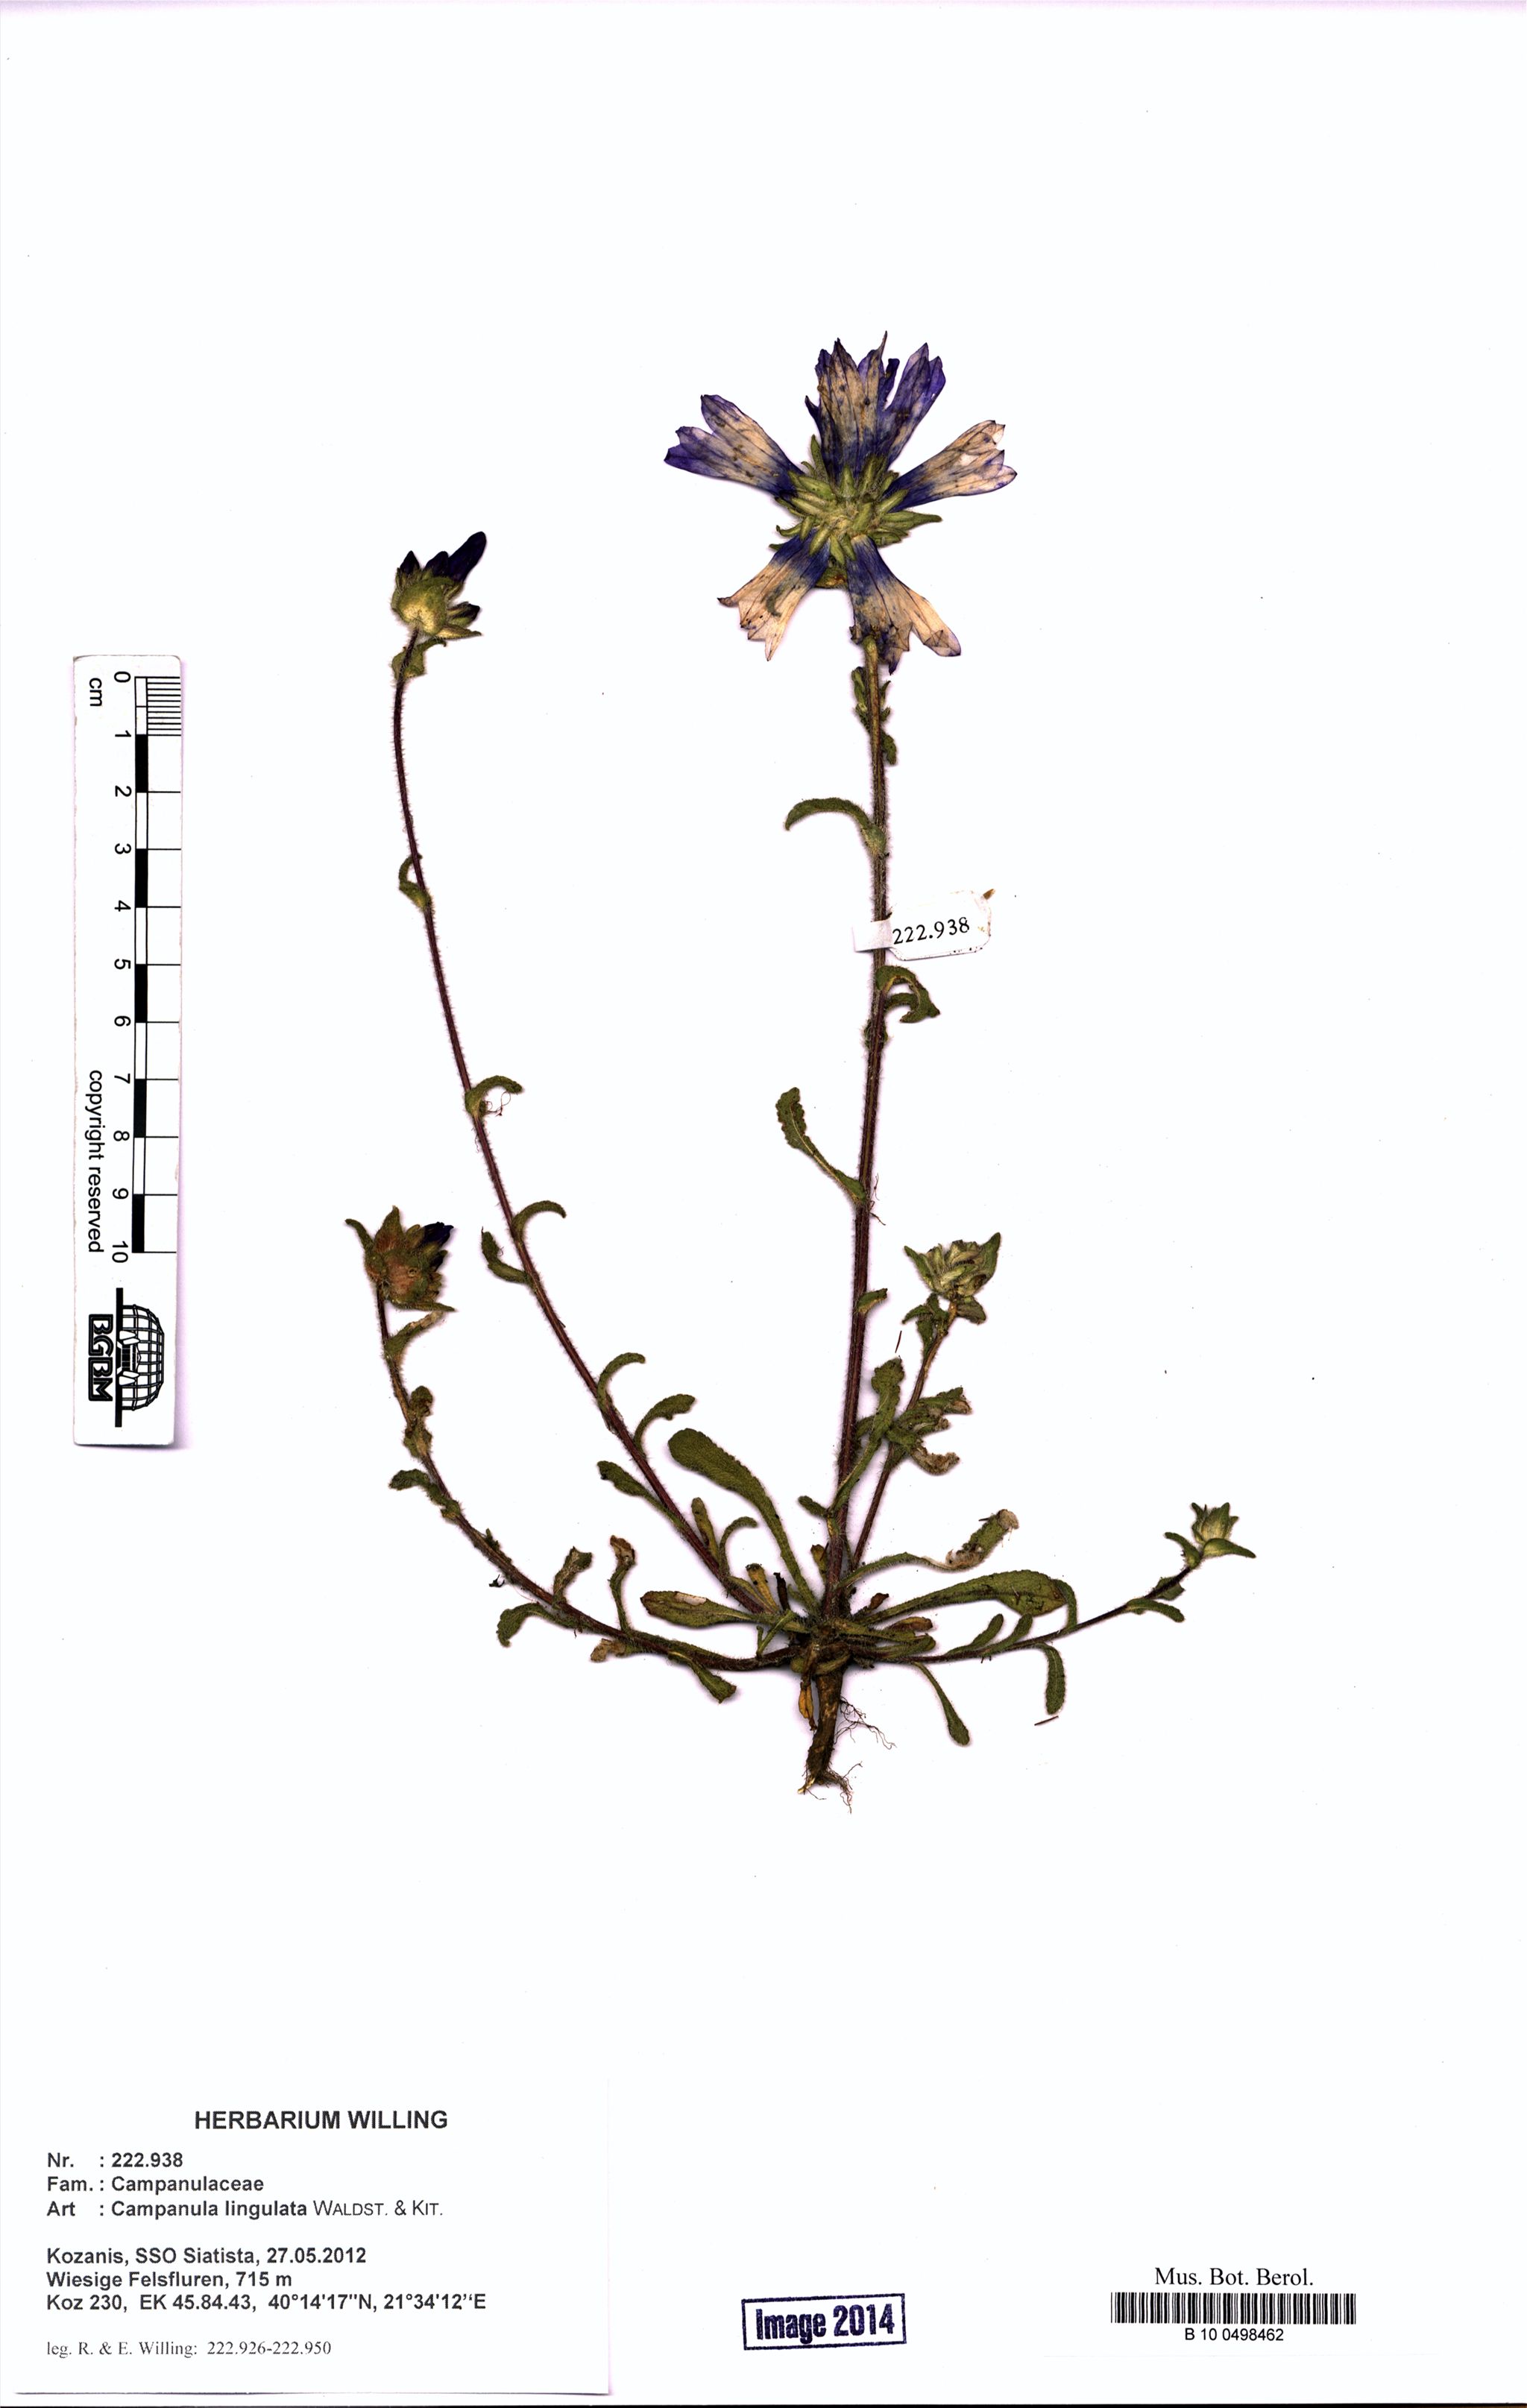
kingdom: Plantae
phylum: Tracheophyta
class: Magnoliopsida
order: Asterales
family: Campanulaceae
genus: Campanula
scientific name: Campanula lingulata
